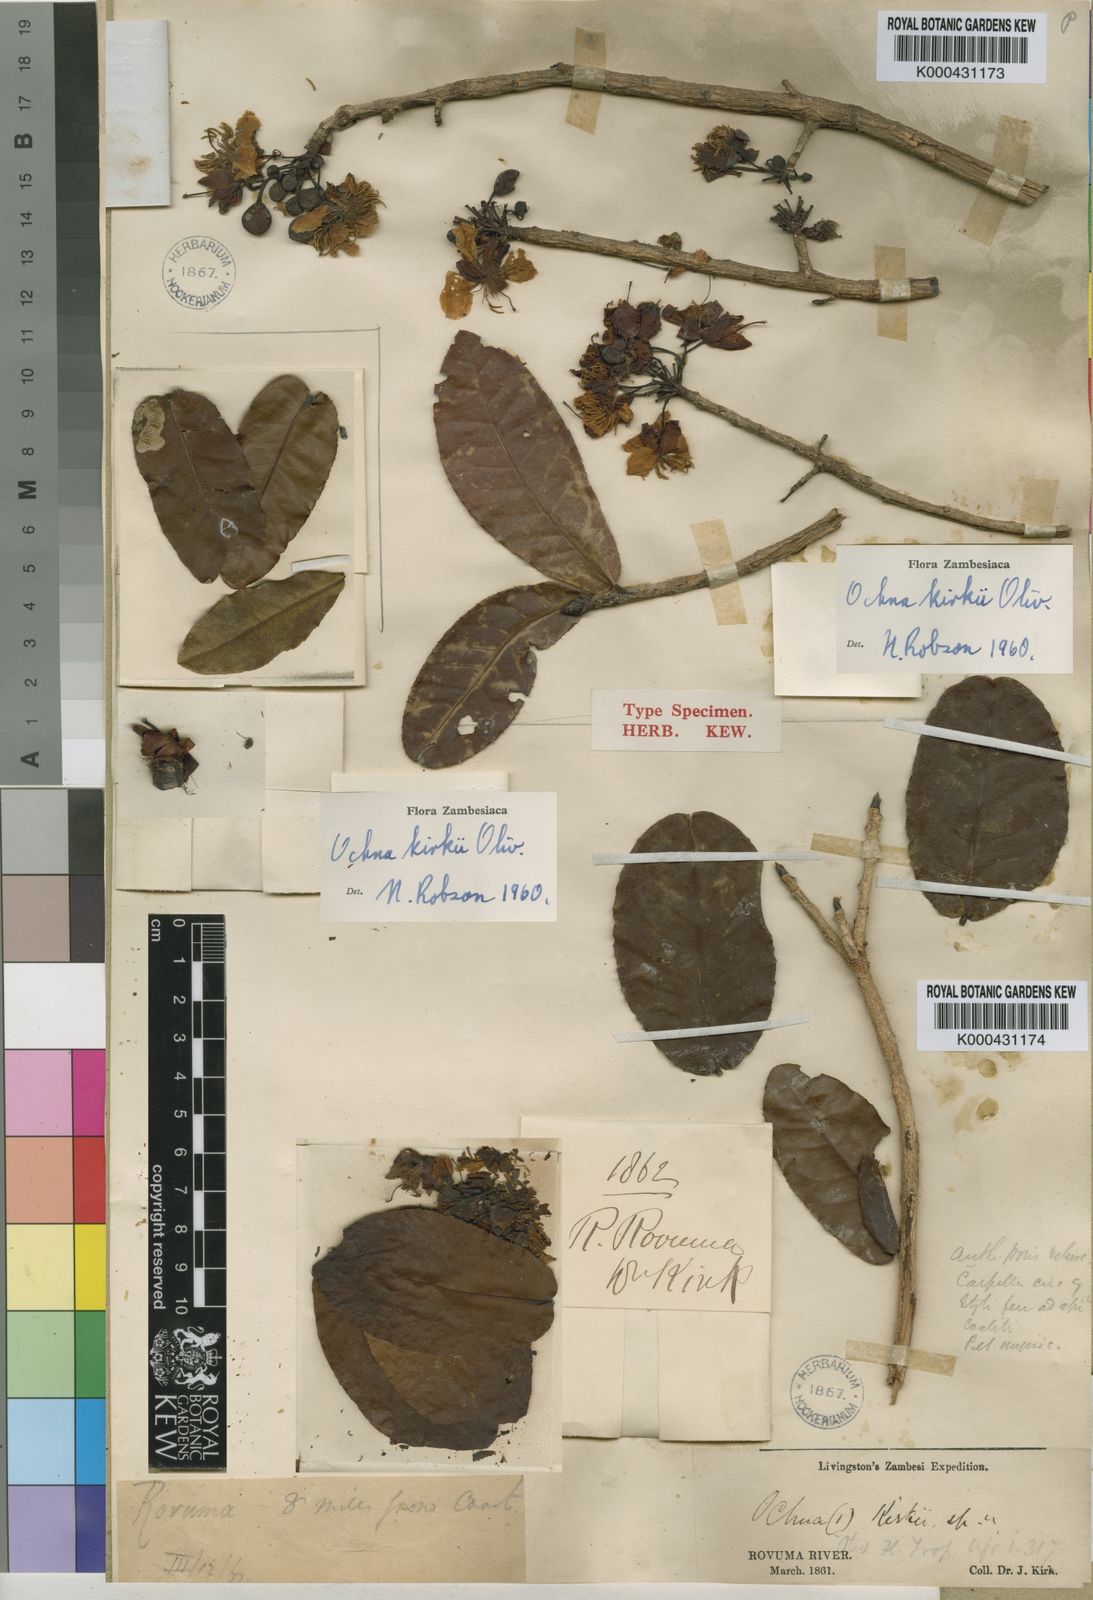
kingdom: Plantae
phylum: Tracheophyta
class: Magnoliopsida
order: Malpighiales
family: Ochnaceae
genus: Ochna
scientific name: Ochna kirkii
